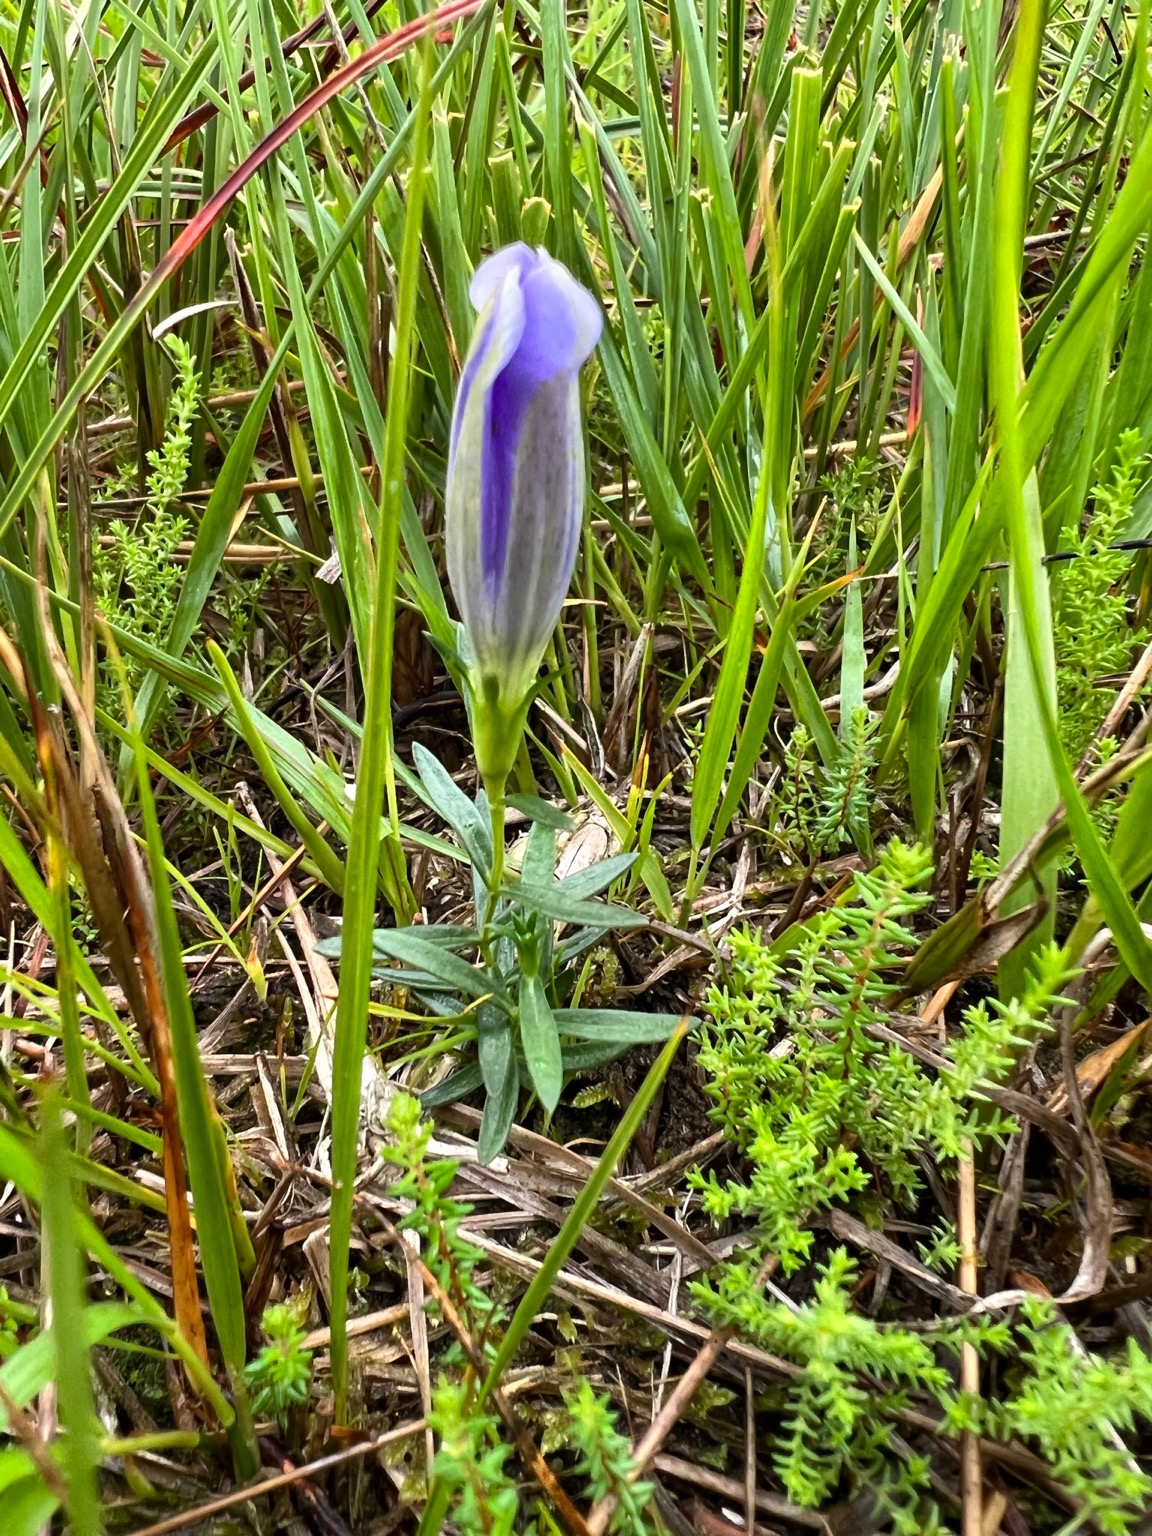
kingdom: Plantae
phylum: Tracheophyta
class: Magnoliopsida
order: Gentianales
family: Gentianaceae
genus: Gentiana
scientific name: Gentiana pneumonanthe
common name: Klokke-ensian
